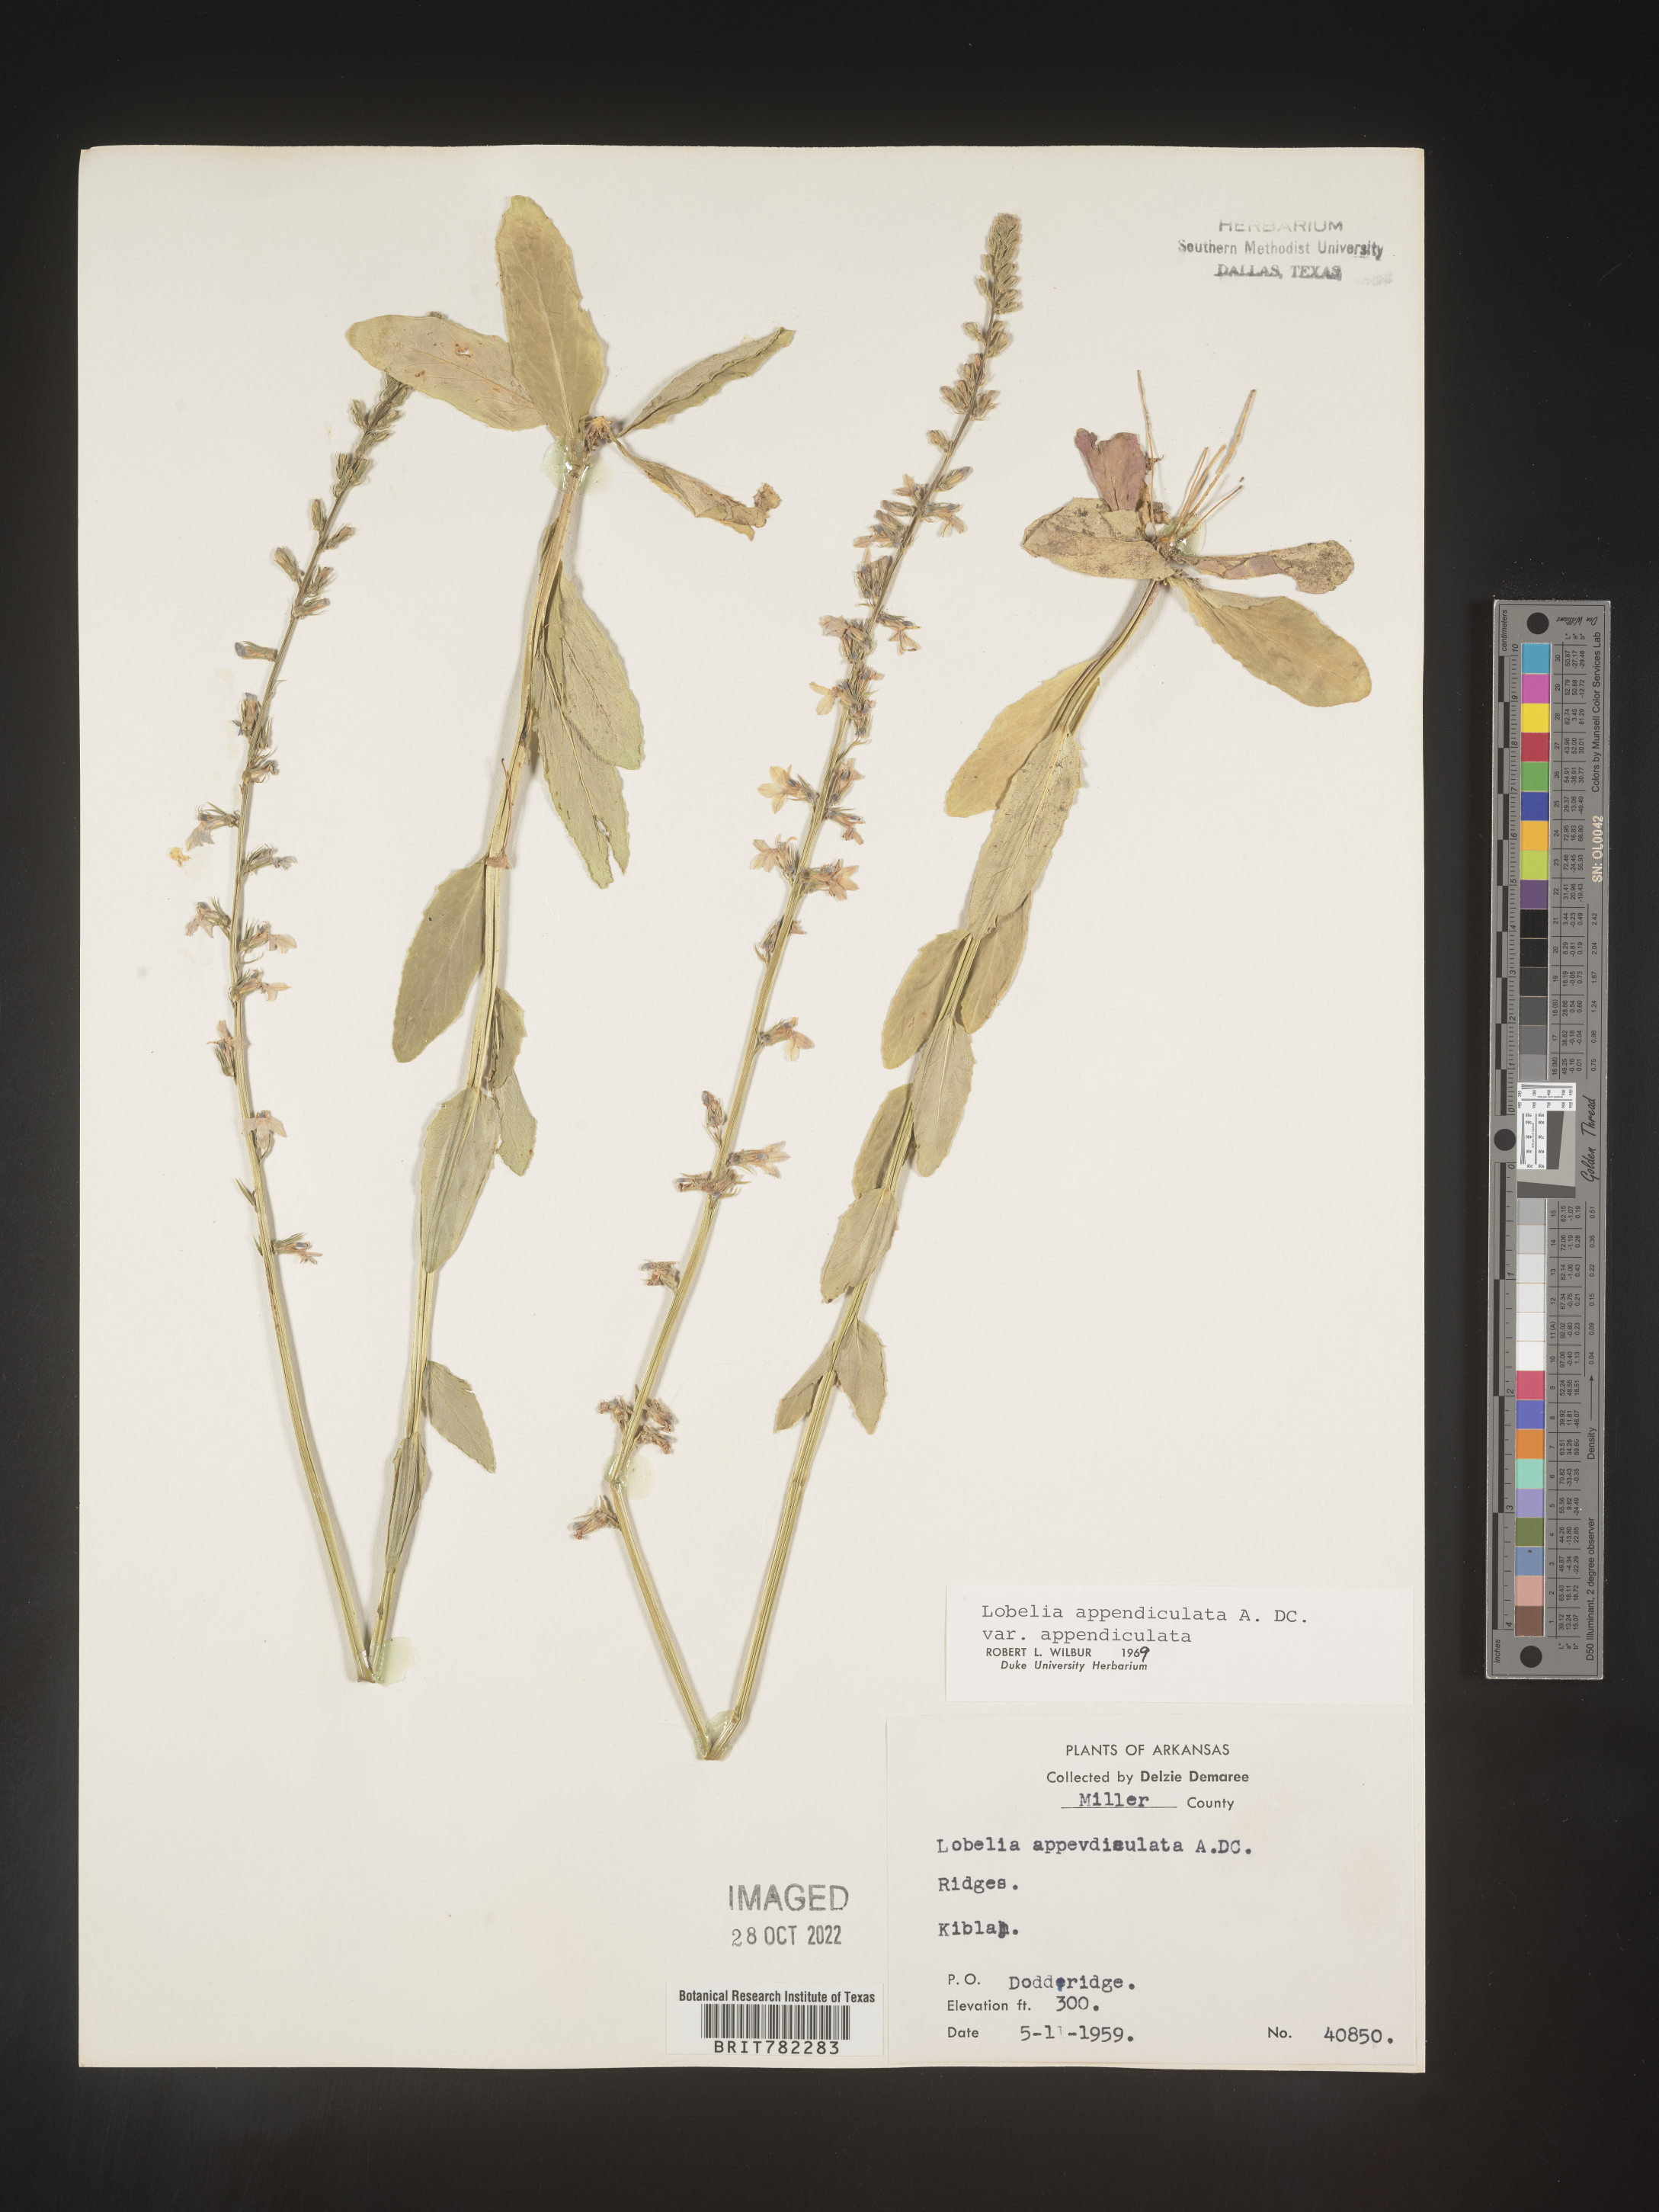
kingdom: Plantae
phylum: Tracheophyta
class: Magnoliopsida
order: Asterales
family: Campanulaceae
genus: Lobelia
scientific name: Lobelia appendiculata
